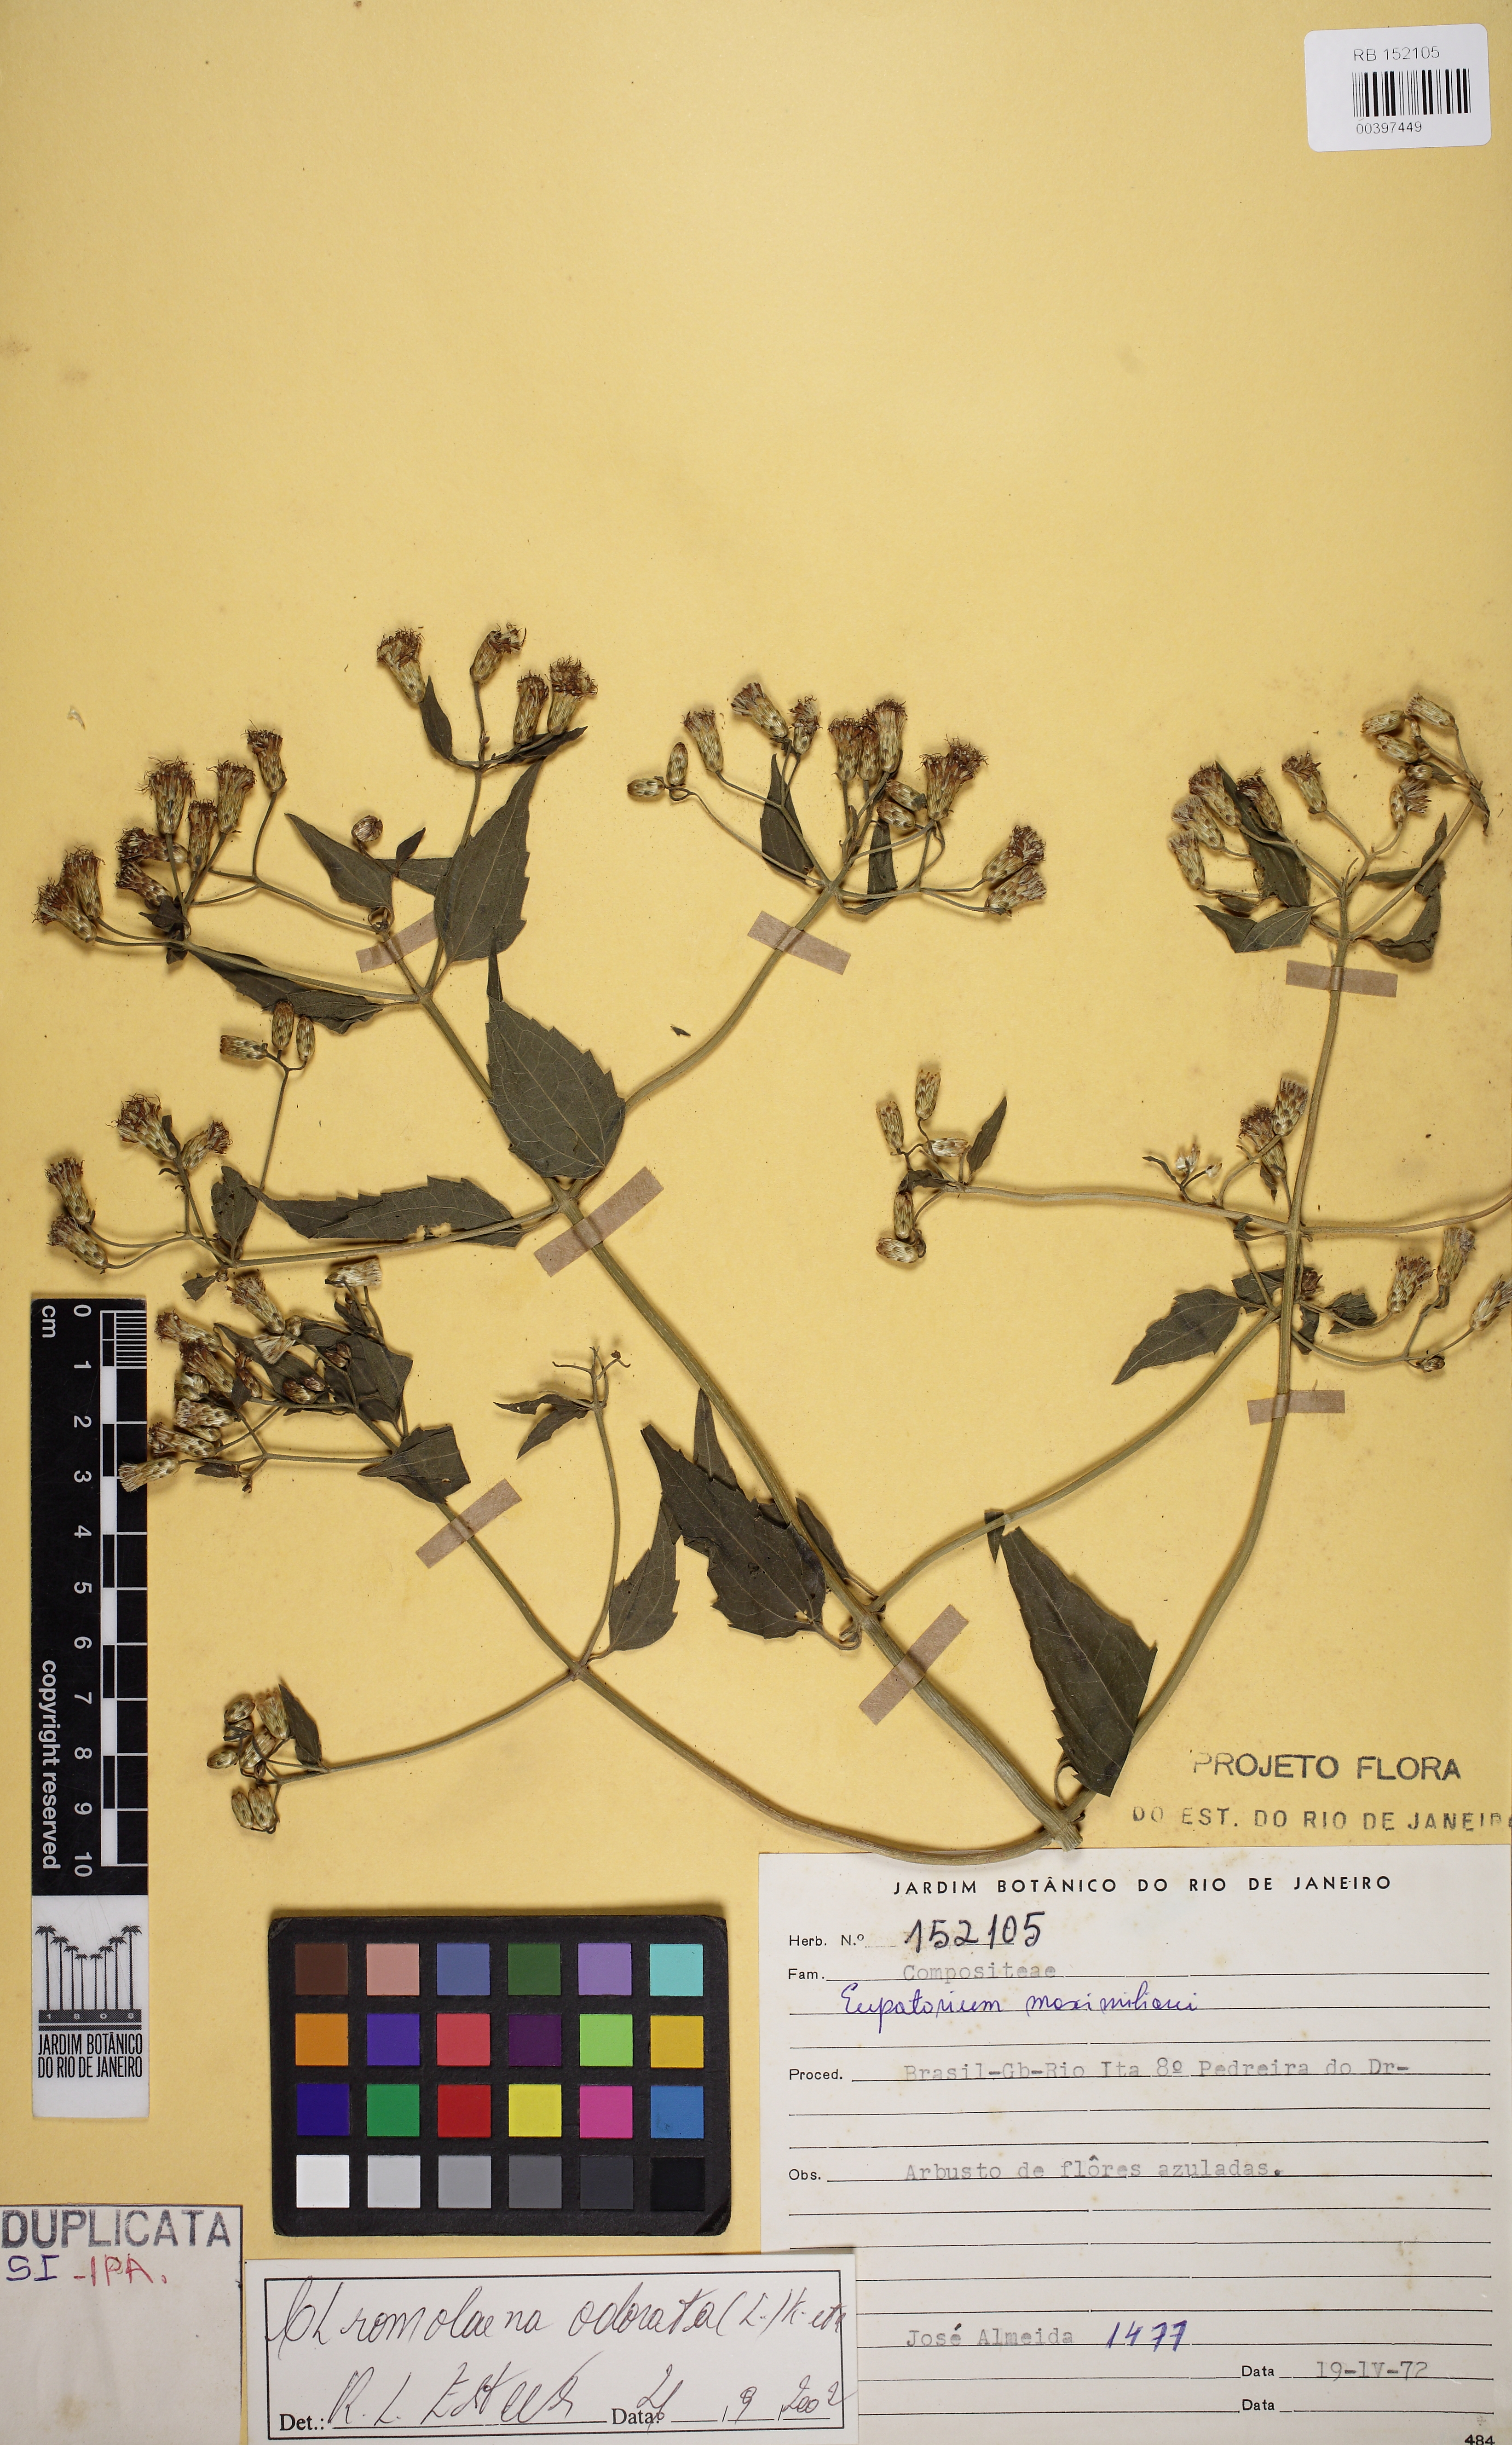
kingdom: Plantae
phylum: Tracheophyta
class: Magnoliopsida
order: Asterales
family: Asteraceae
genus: Chromolaena
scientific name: Chromolaena odorata
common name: Siamweed
